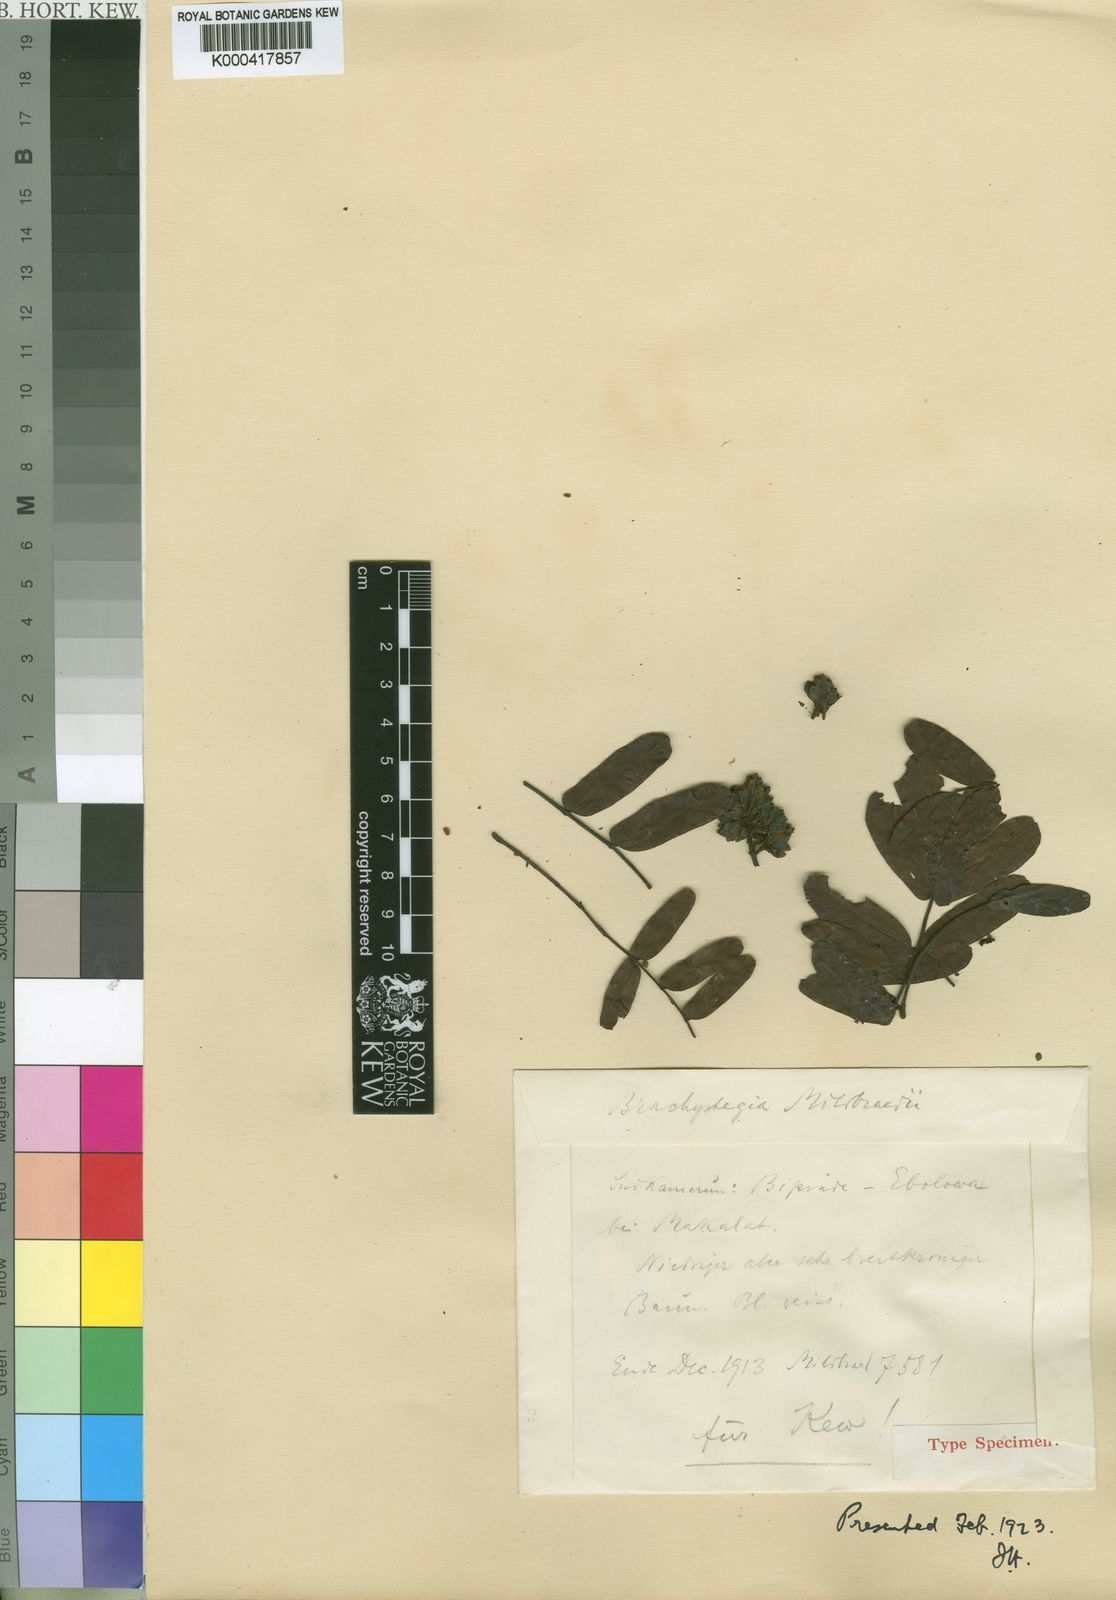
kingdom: Plantae
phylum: Tracheophyta
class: Magnoliopsida
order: Fabales
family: Fabaceae
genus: Brachystegia
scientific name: Brachystegia mildbraedii
